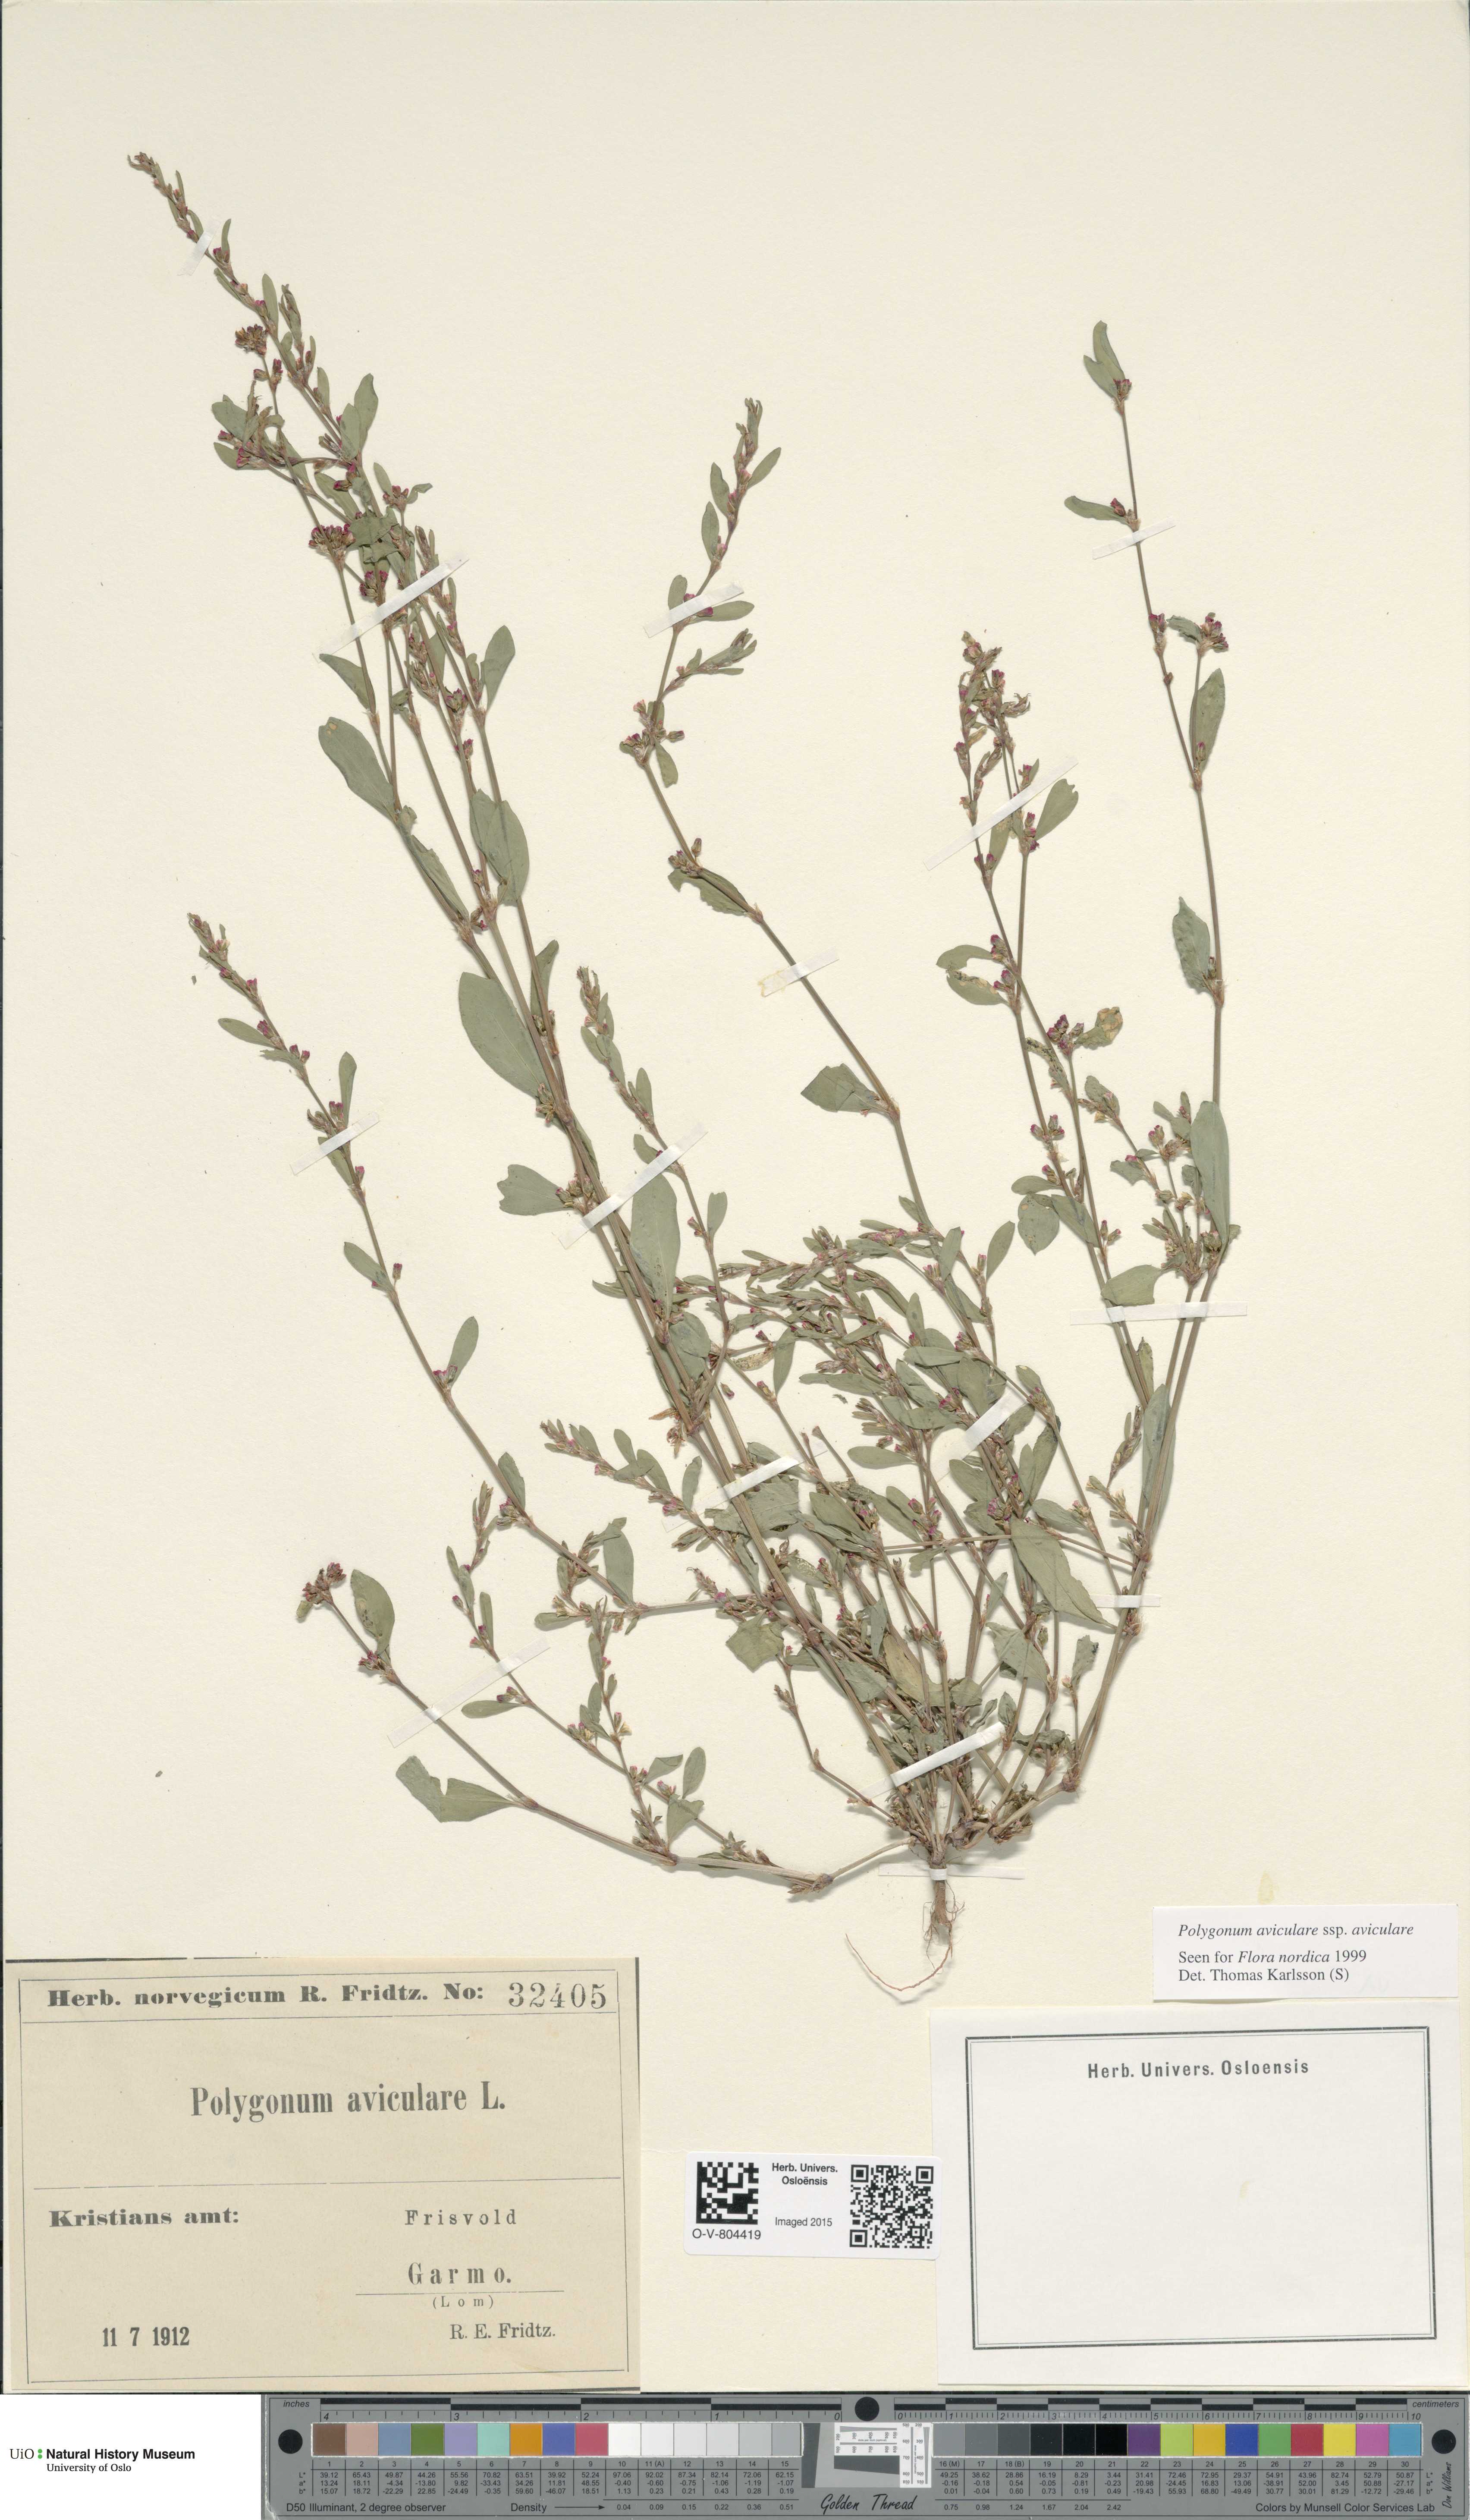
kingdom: Plantae
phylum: Tracheophyta
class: Magnoliopsida
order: Caryophyllales
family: Polygonaceae
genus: Polygonum
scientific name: Polygonum aviculare
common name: Prostrate knotweed
